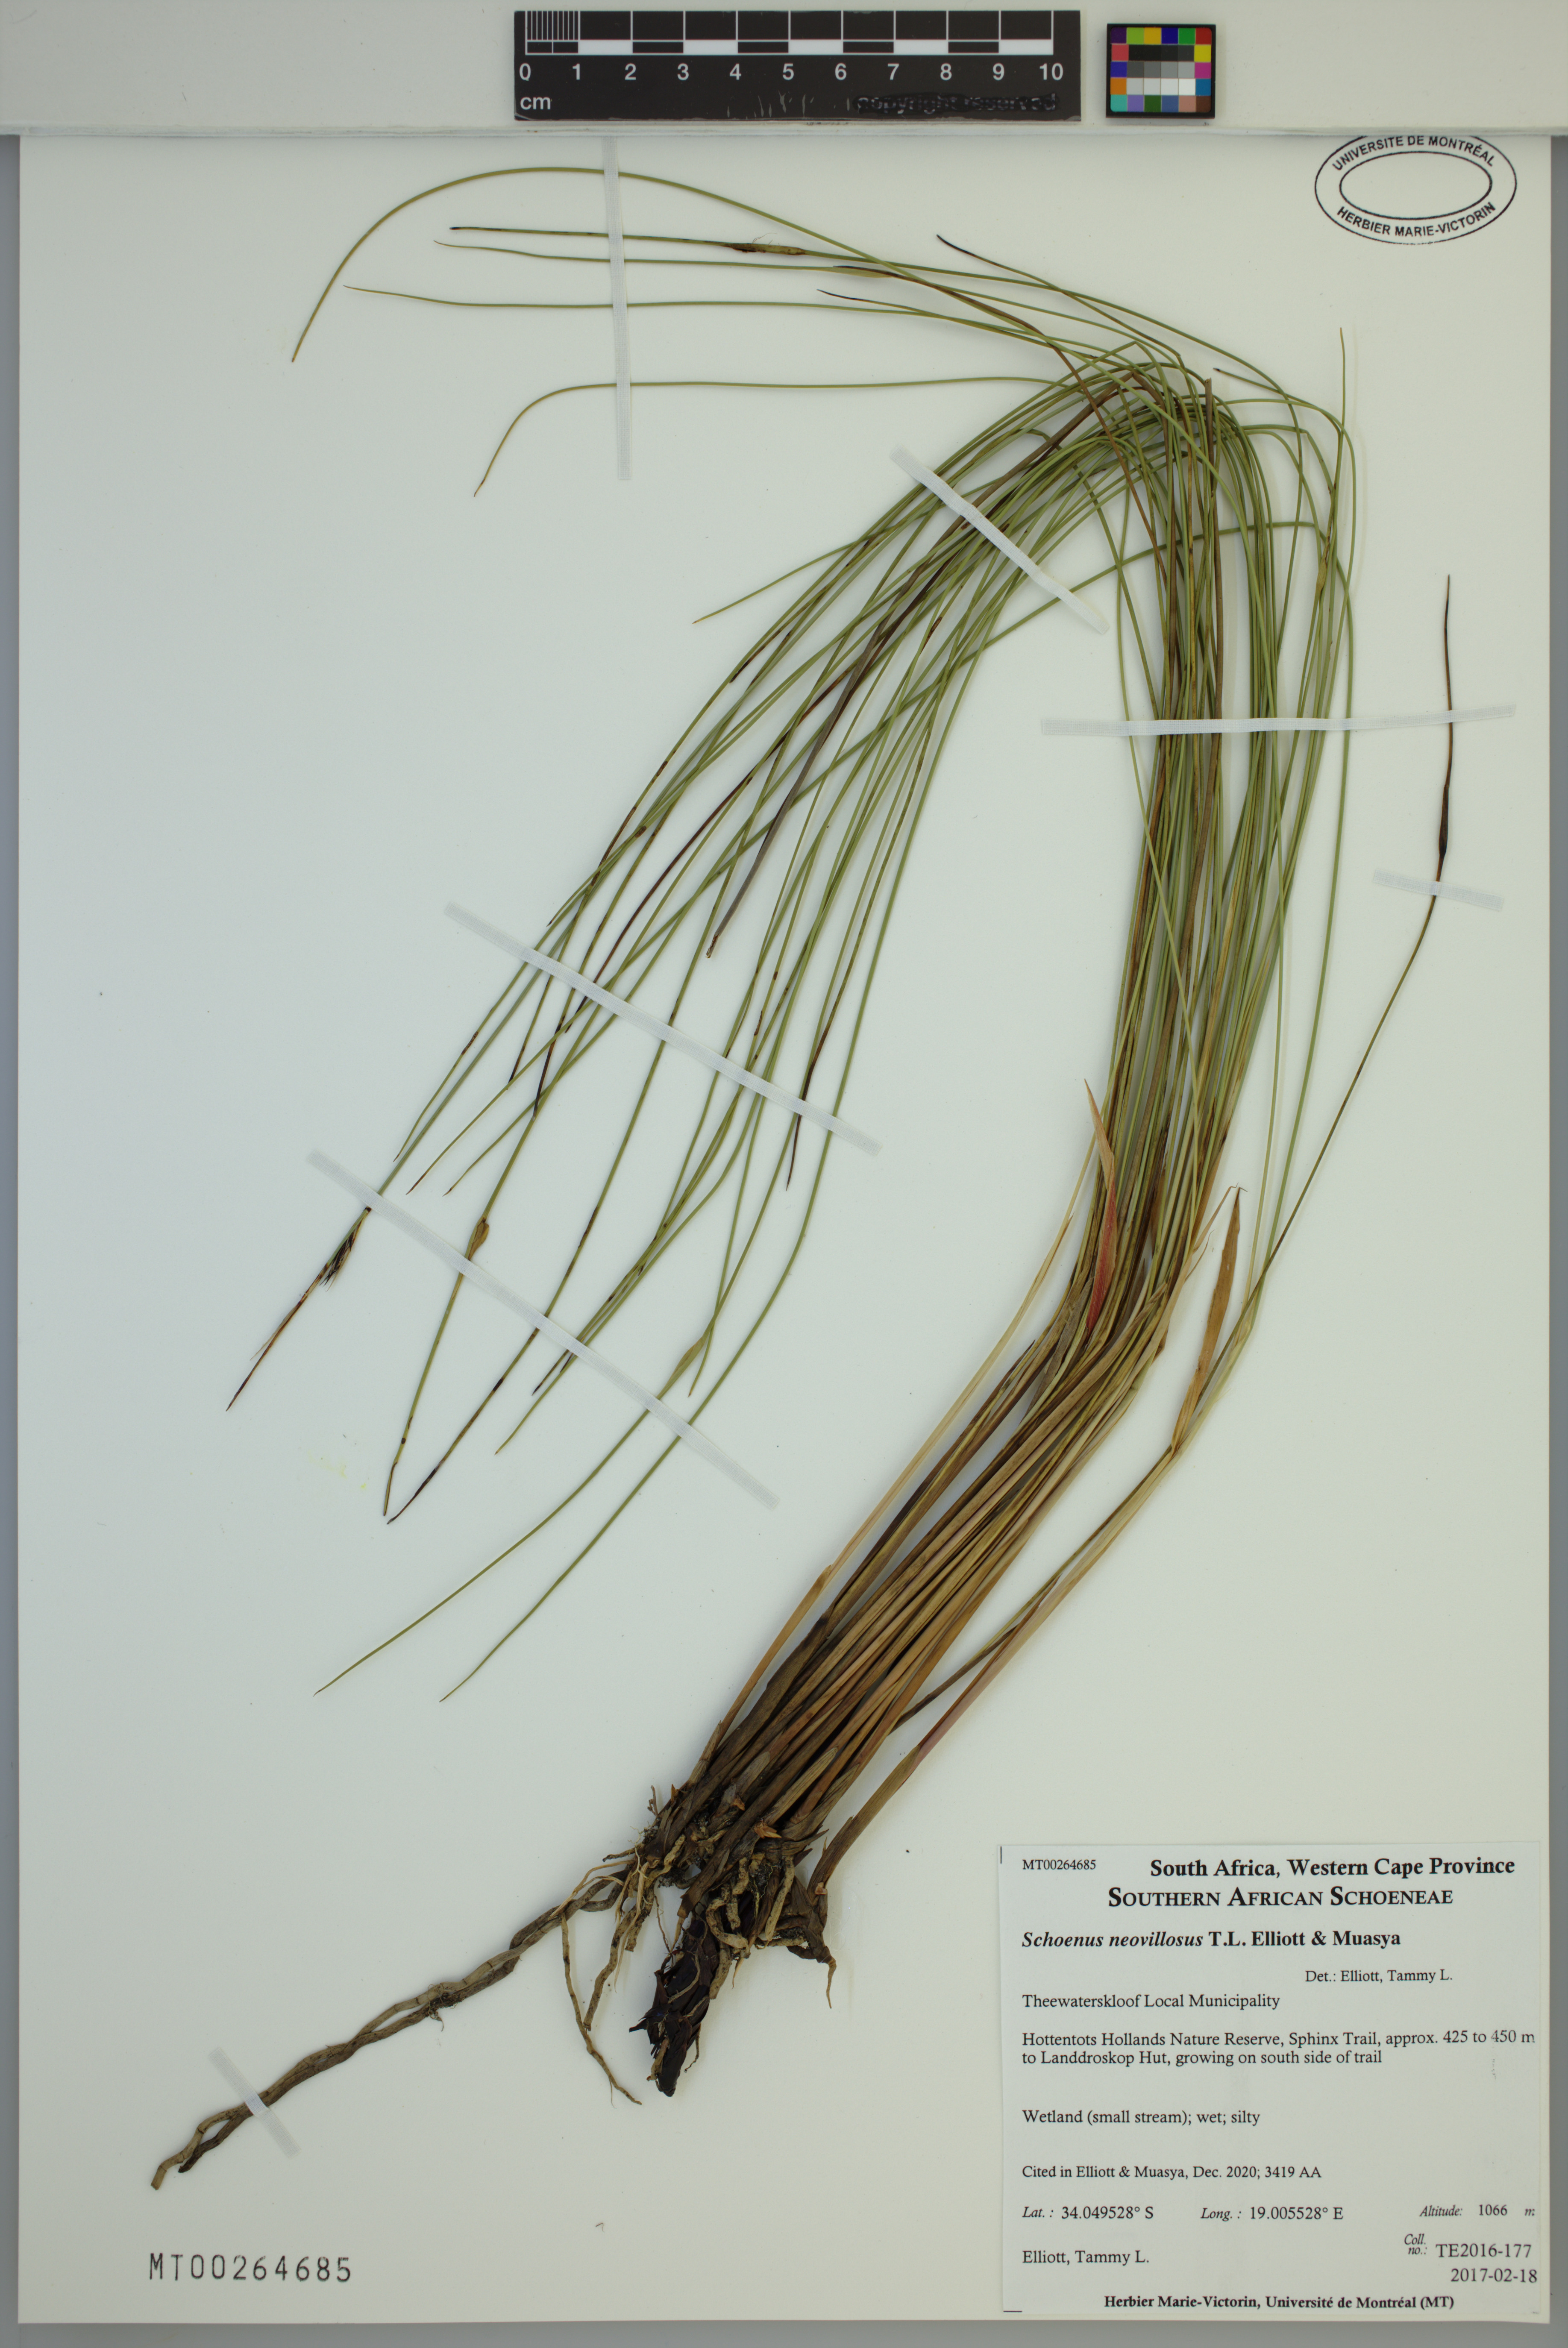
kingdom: Plantae
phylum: Tracheophyta
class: Liliopsida
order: Poales
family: Cyperaceae
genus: Schoenus
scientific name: Schoenus neovillosus
